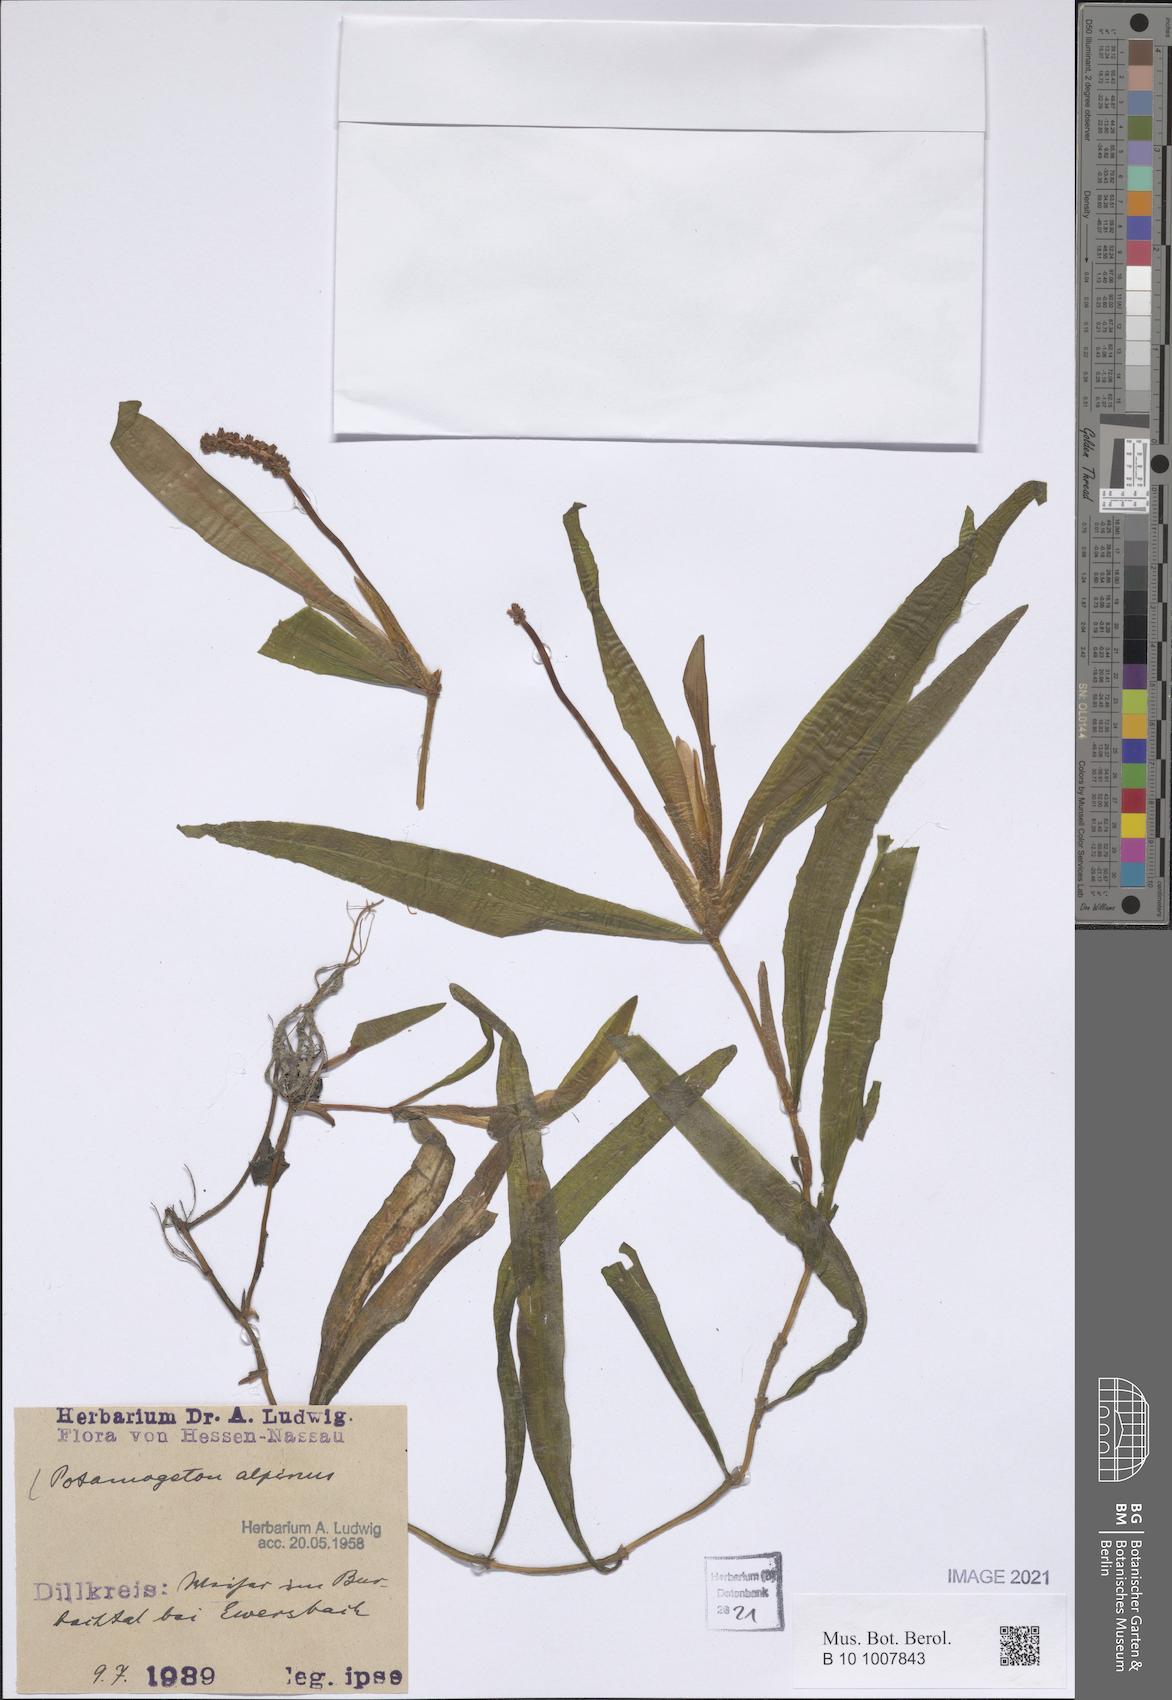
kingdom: Plantae
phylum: Tracheophyta
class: Liliopsida
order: Alismatales
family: Potamogetonaceae
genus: Potamogeton
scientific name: Potamogeton alpinus
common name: Red pondweed
